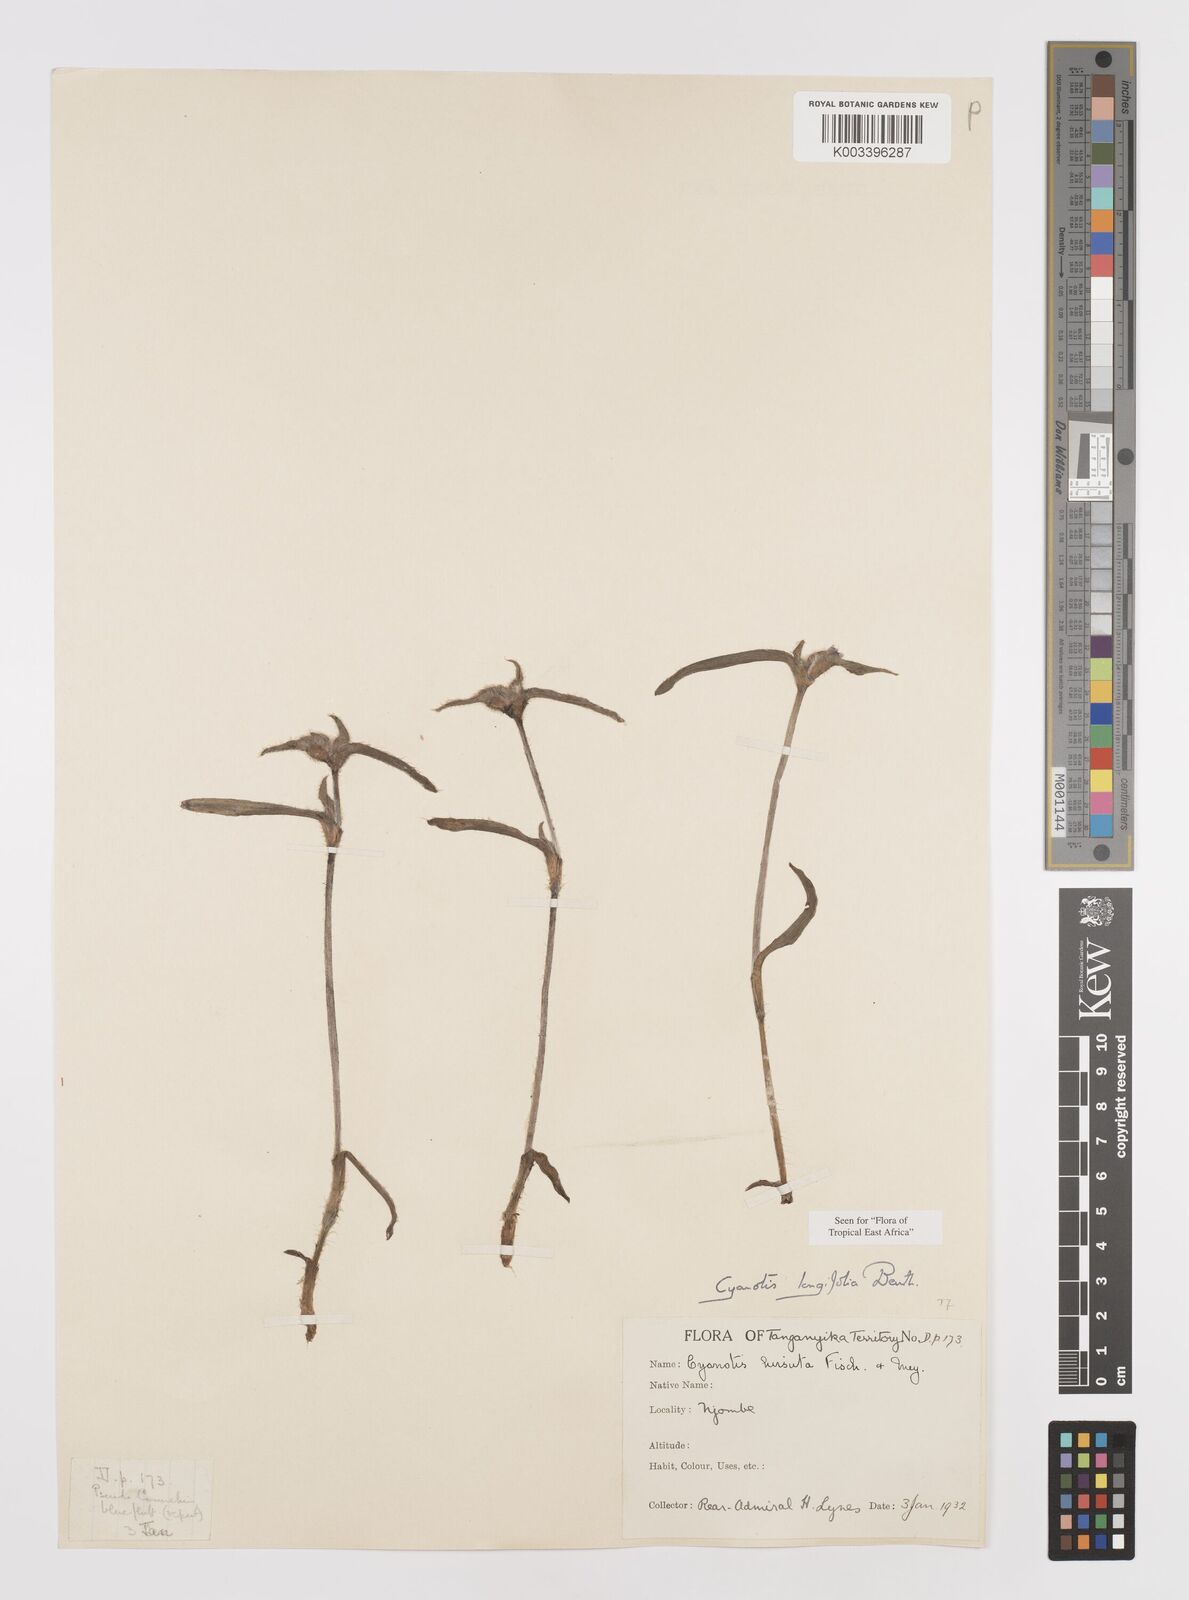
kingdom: Plantae
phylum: Tracheophyta
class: Liliopsida
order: Commelinales
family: Commelinaceae
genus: Cyanotis
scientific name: Cyanotis longifolia
